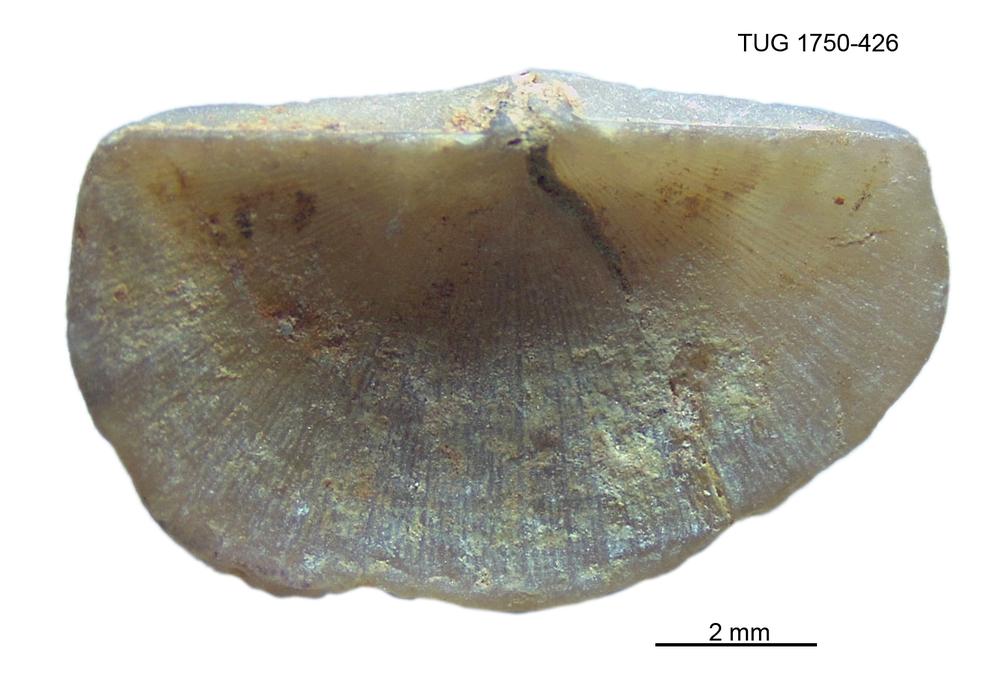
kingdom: Animalia
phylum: Brachiopoda
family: Sowerbyellidae
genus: Sowerbyella
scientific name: Sowerbyella
